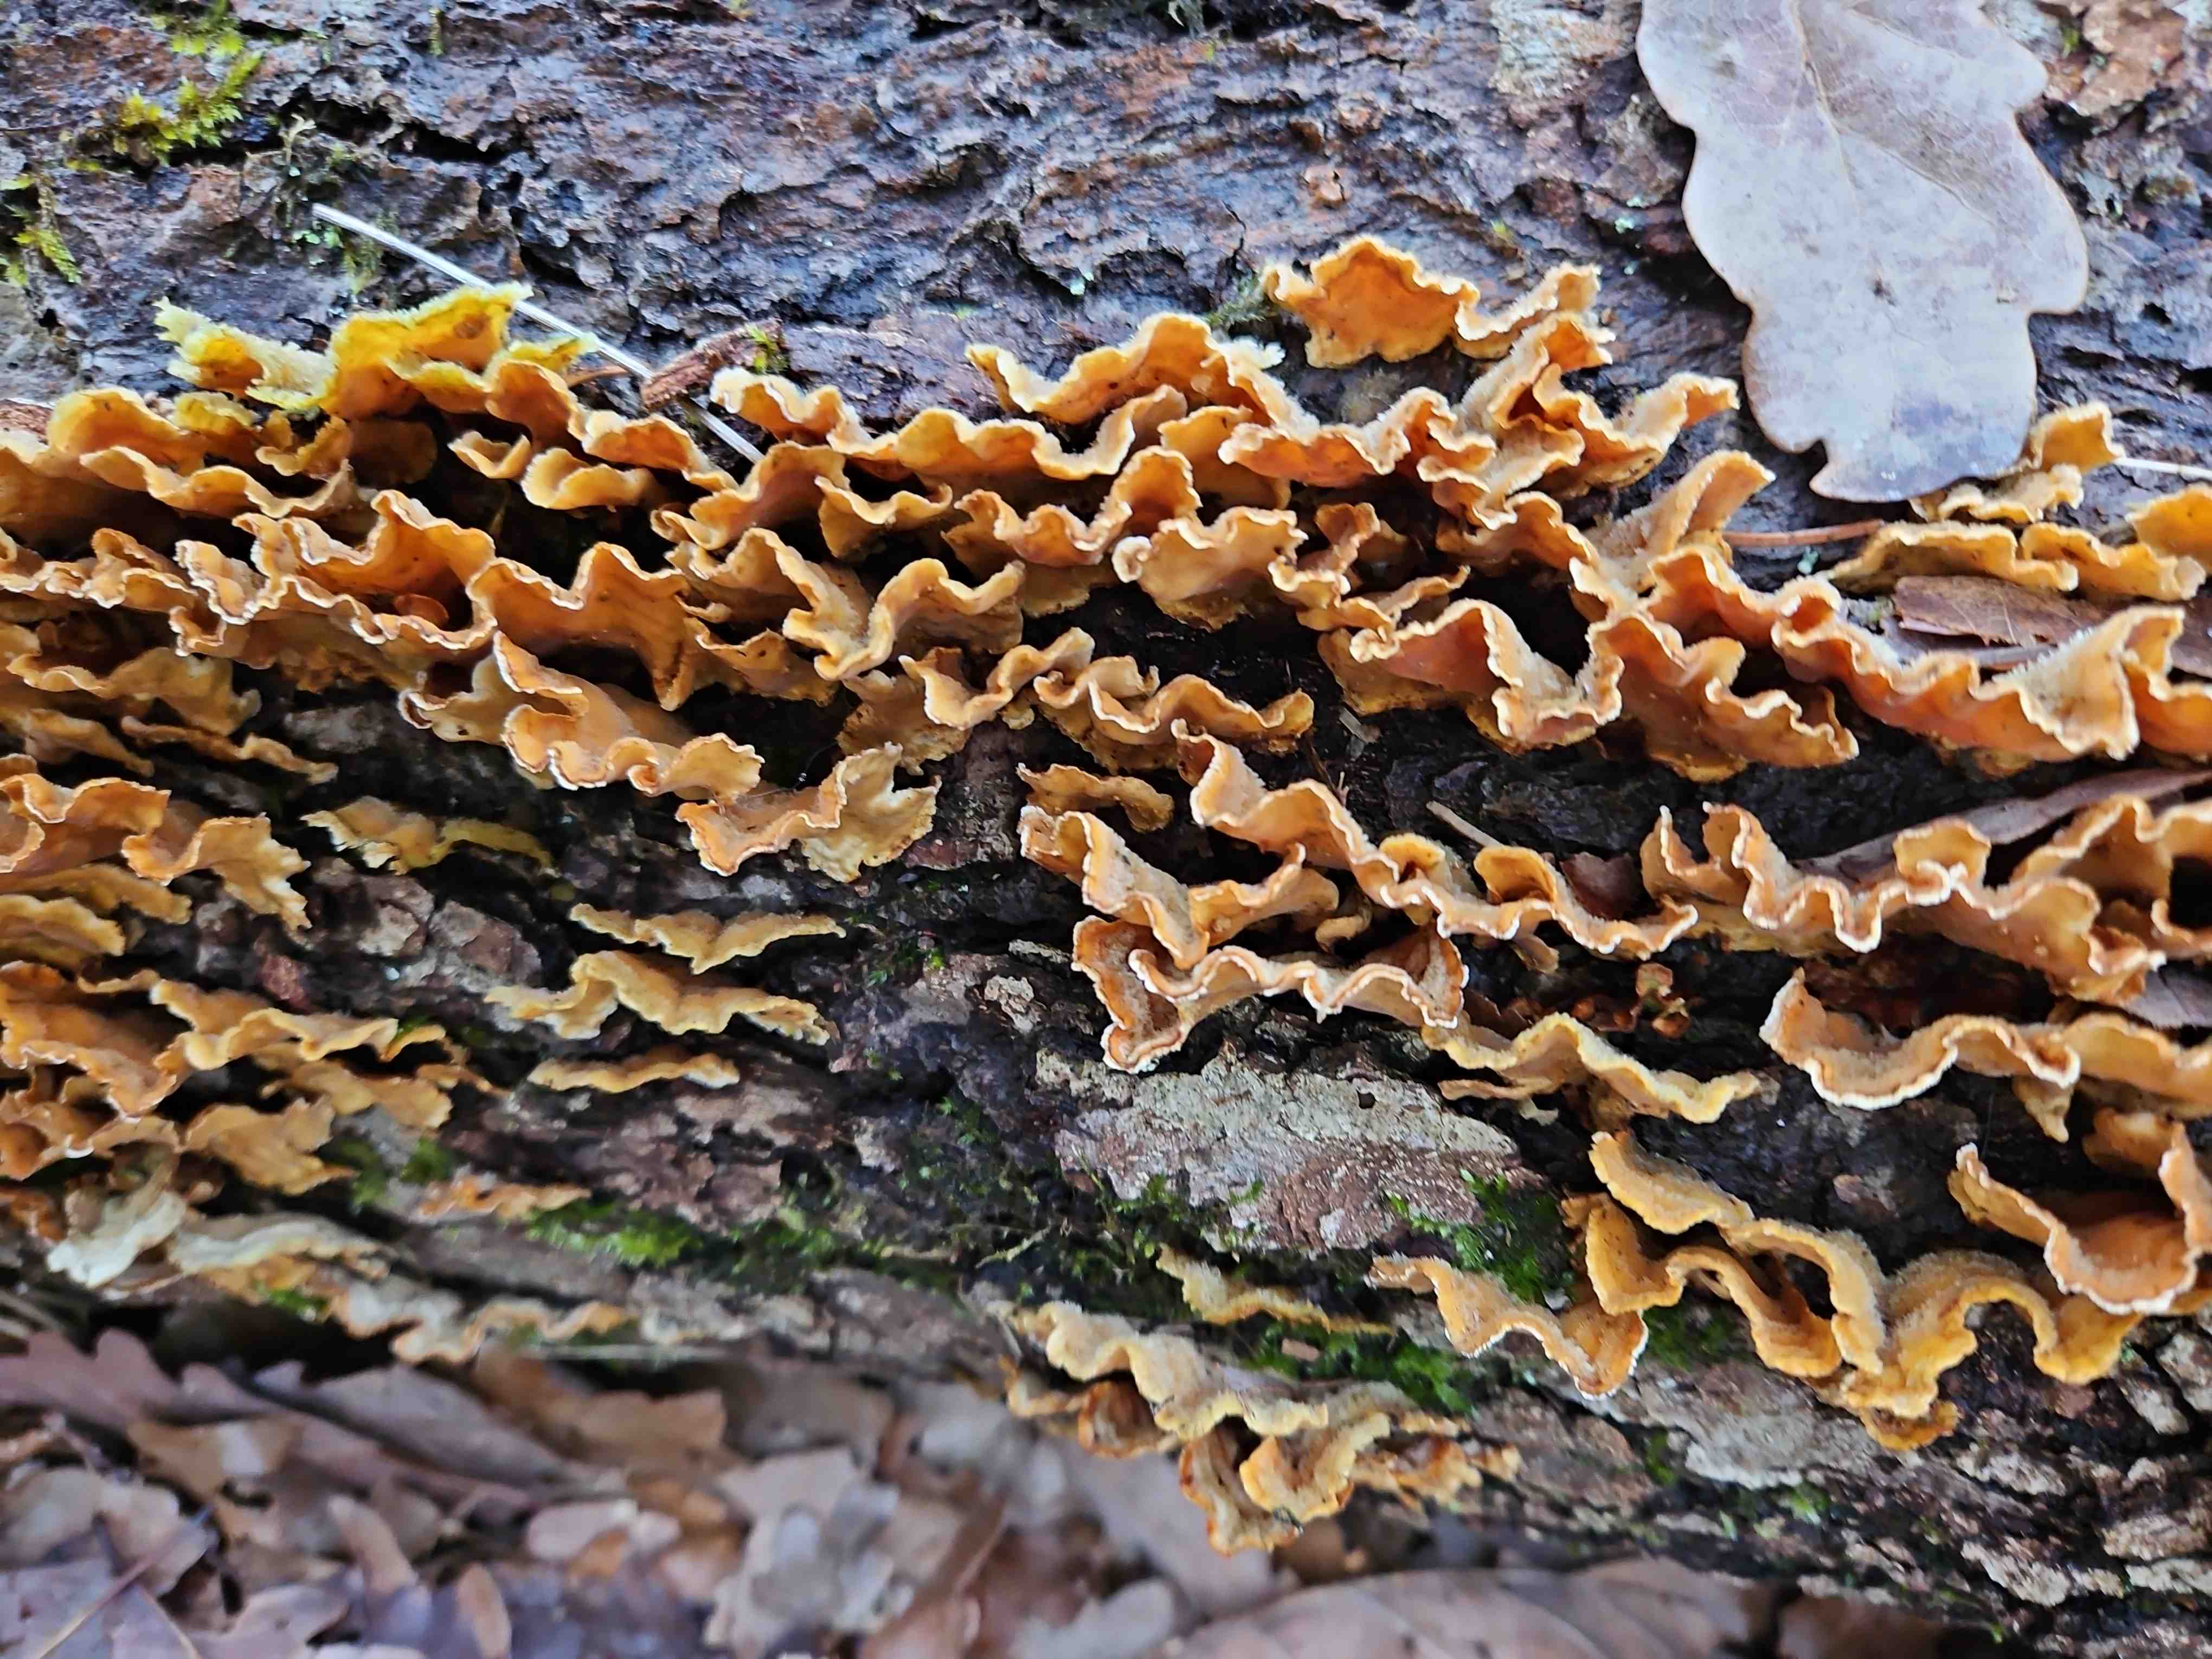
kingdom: Fungi
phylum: Basidiomycota
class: Agaricomycetes
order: Russulales
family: Stereaceae
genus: Stereum
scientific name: Stereum hirsutum
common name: håret lædersvamp
